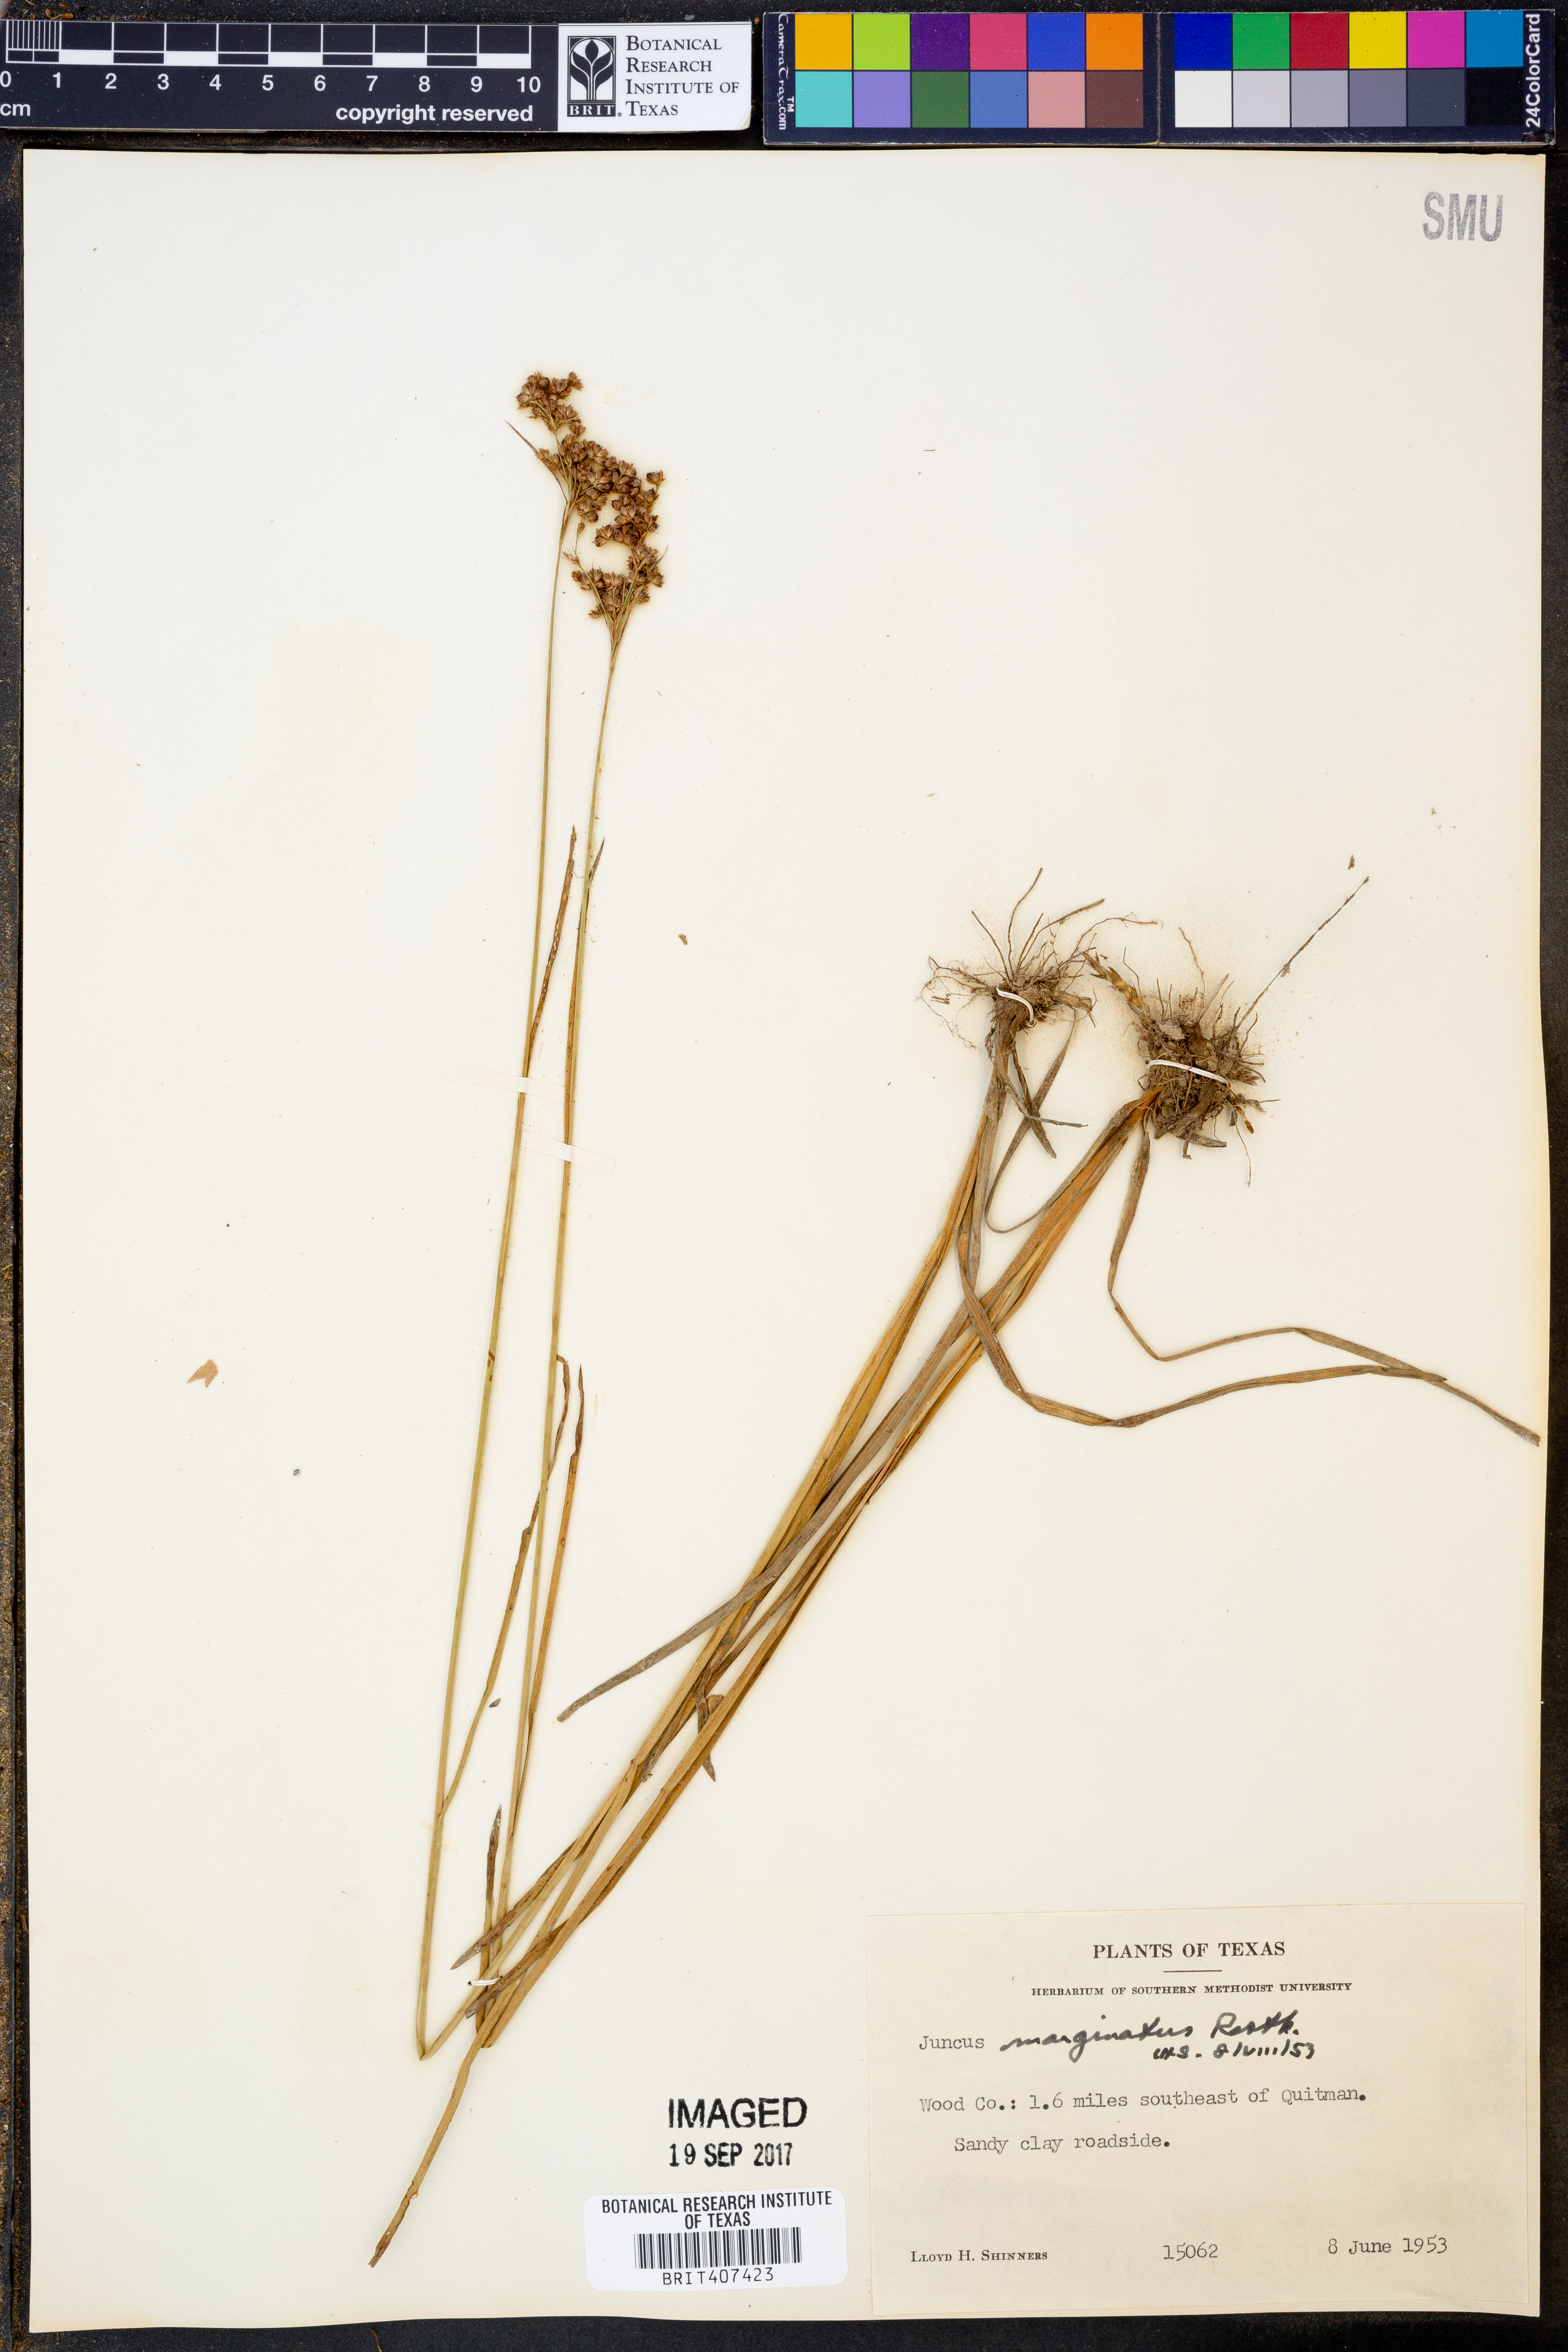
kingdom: Plantae
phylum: Tracheophyta
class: Liliopsida
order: Poales
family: Juncaceae
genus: Juncus
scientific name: Juncus marginatus
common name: Grass-leaf rush
